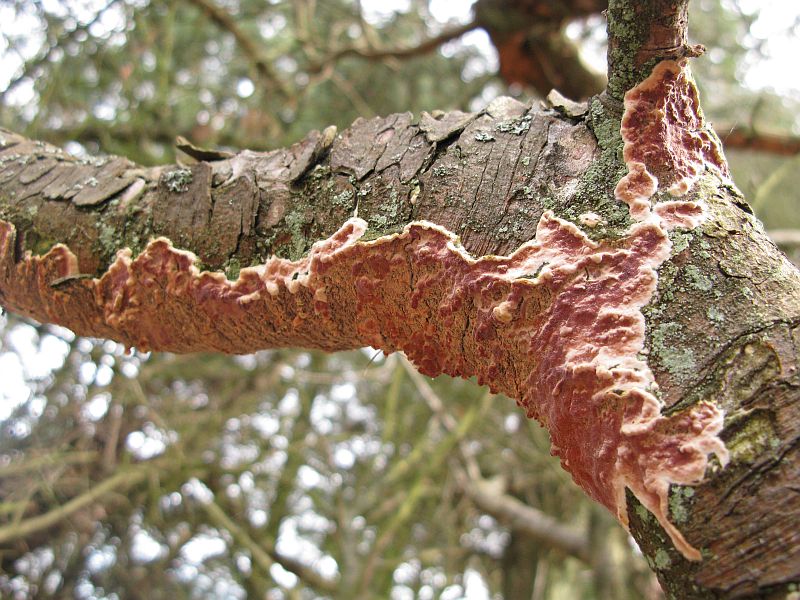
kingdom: Fungi
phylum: Basidiomycota
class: Agaricomycetes
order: Polyporales
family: Irpicaceae
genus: Meruliopsis
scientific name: Meruliopsis taxicola
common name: purpurbrun foldporesvamp
